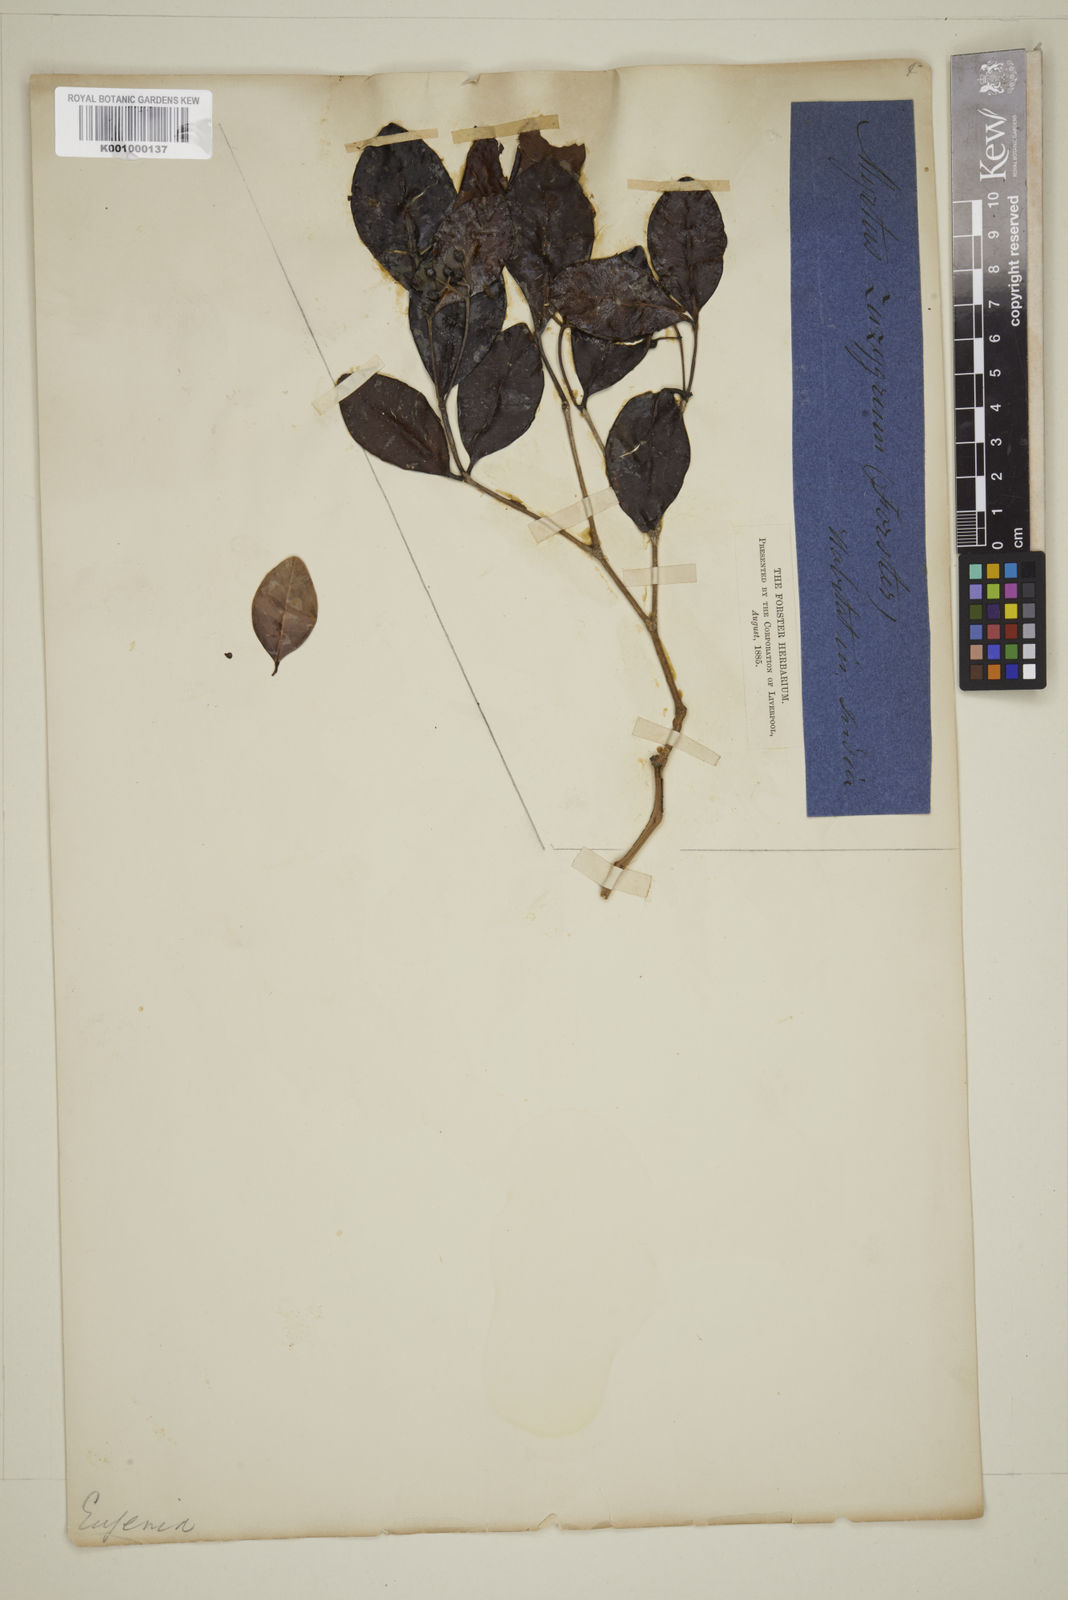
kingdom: Plantae
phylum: Tracheophyta
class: Magnoliopsida
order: Myrtales
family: Myrtaceae
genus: Eugenia
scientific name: Eugenia
